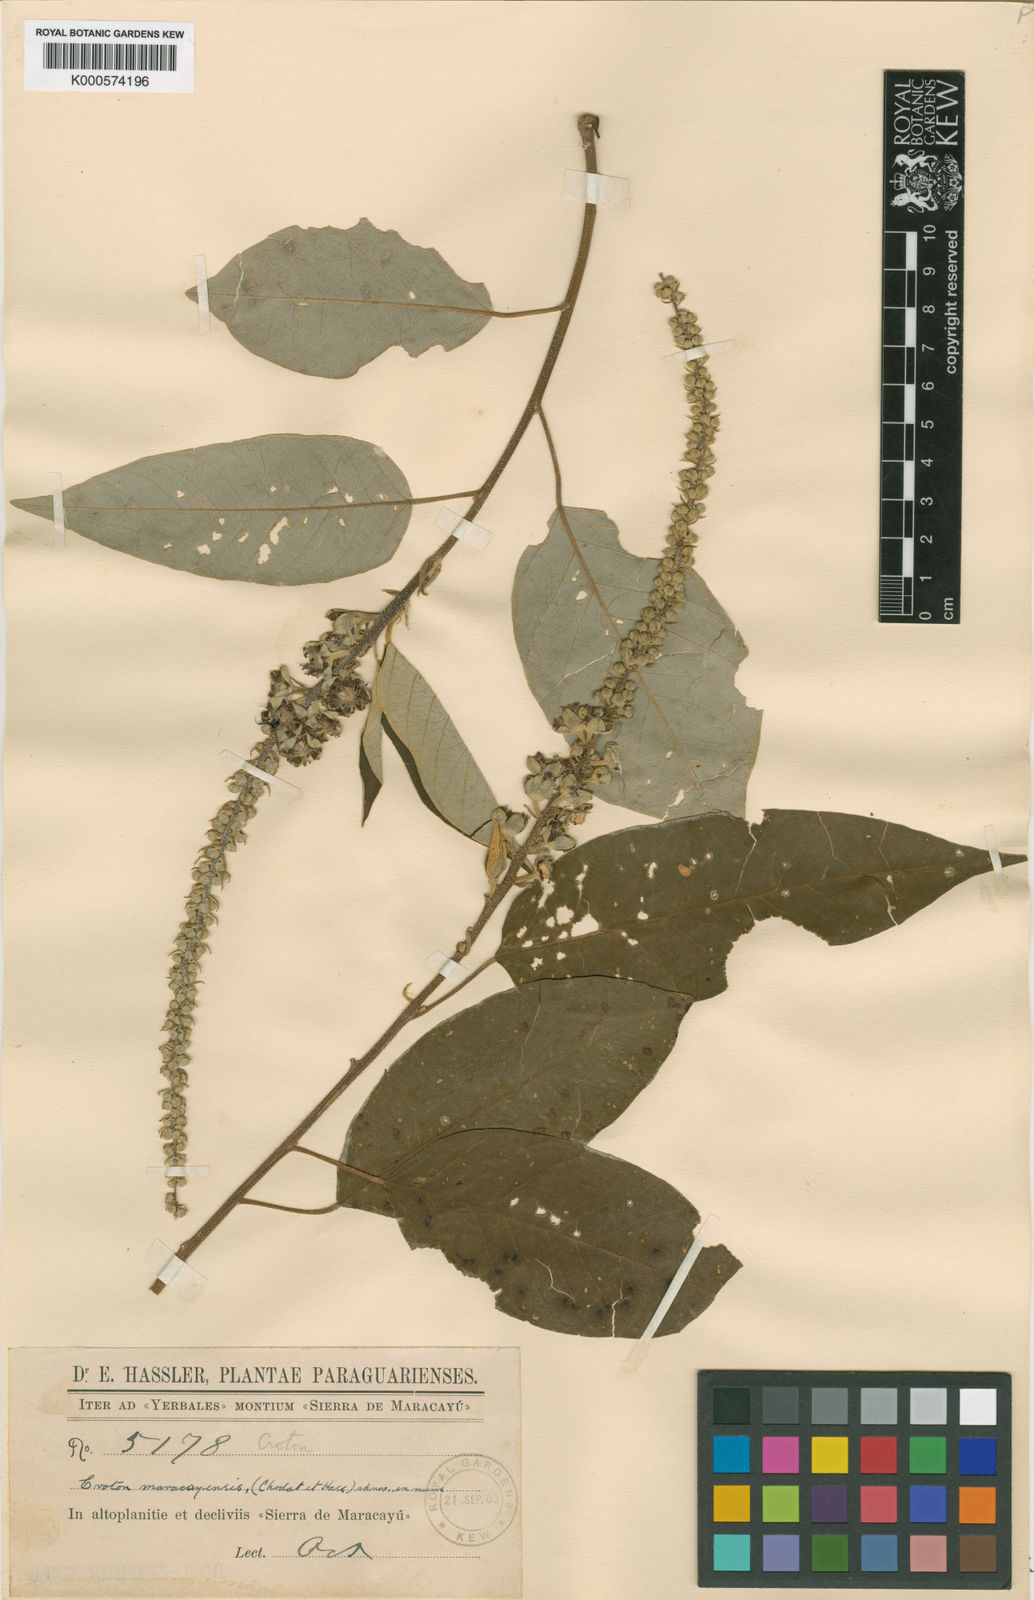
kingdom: Plantae
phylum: Tracheophyta
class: Magnoliopsida
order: Malpighiales
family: Euphorbiaceae
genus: Croton
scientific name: Croton floribundus
